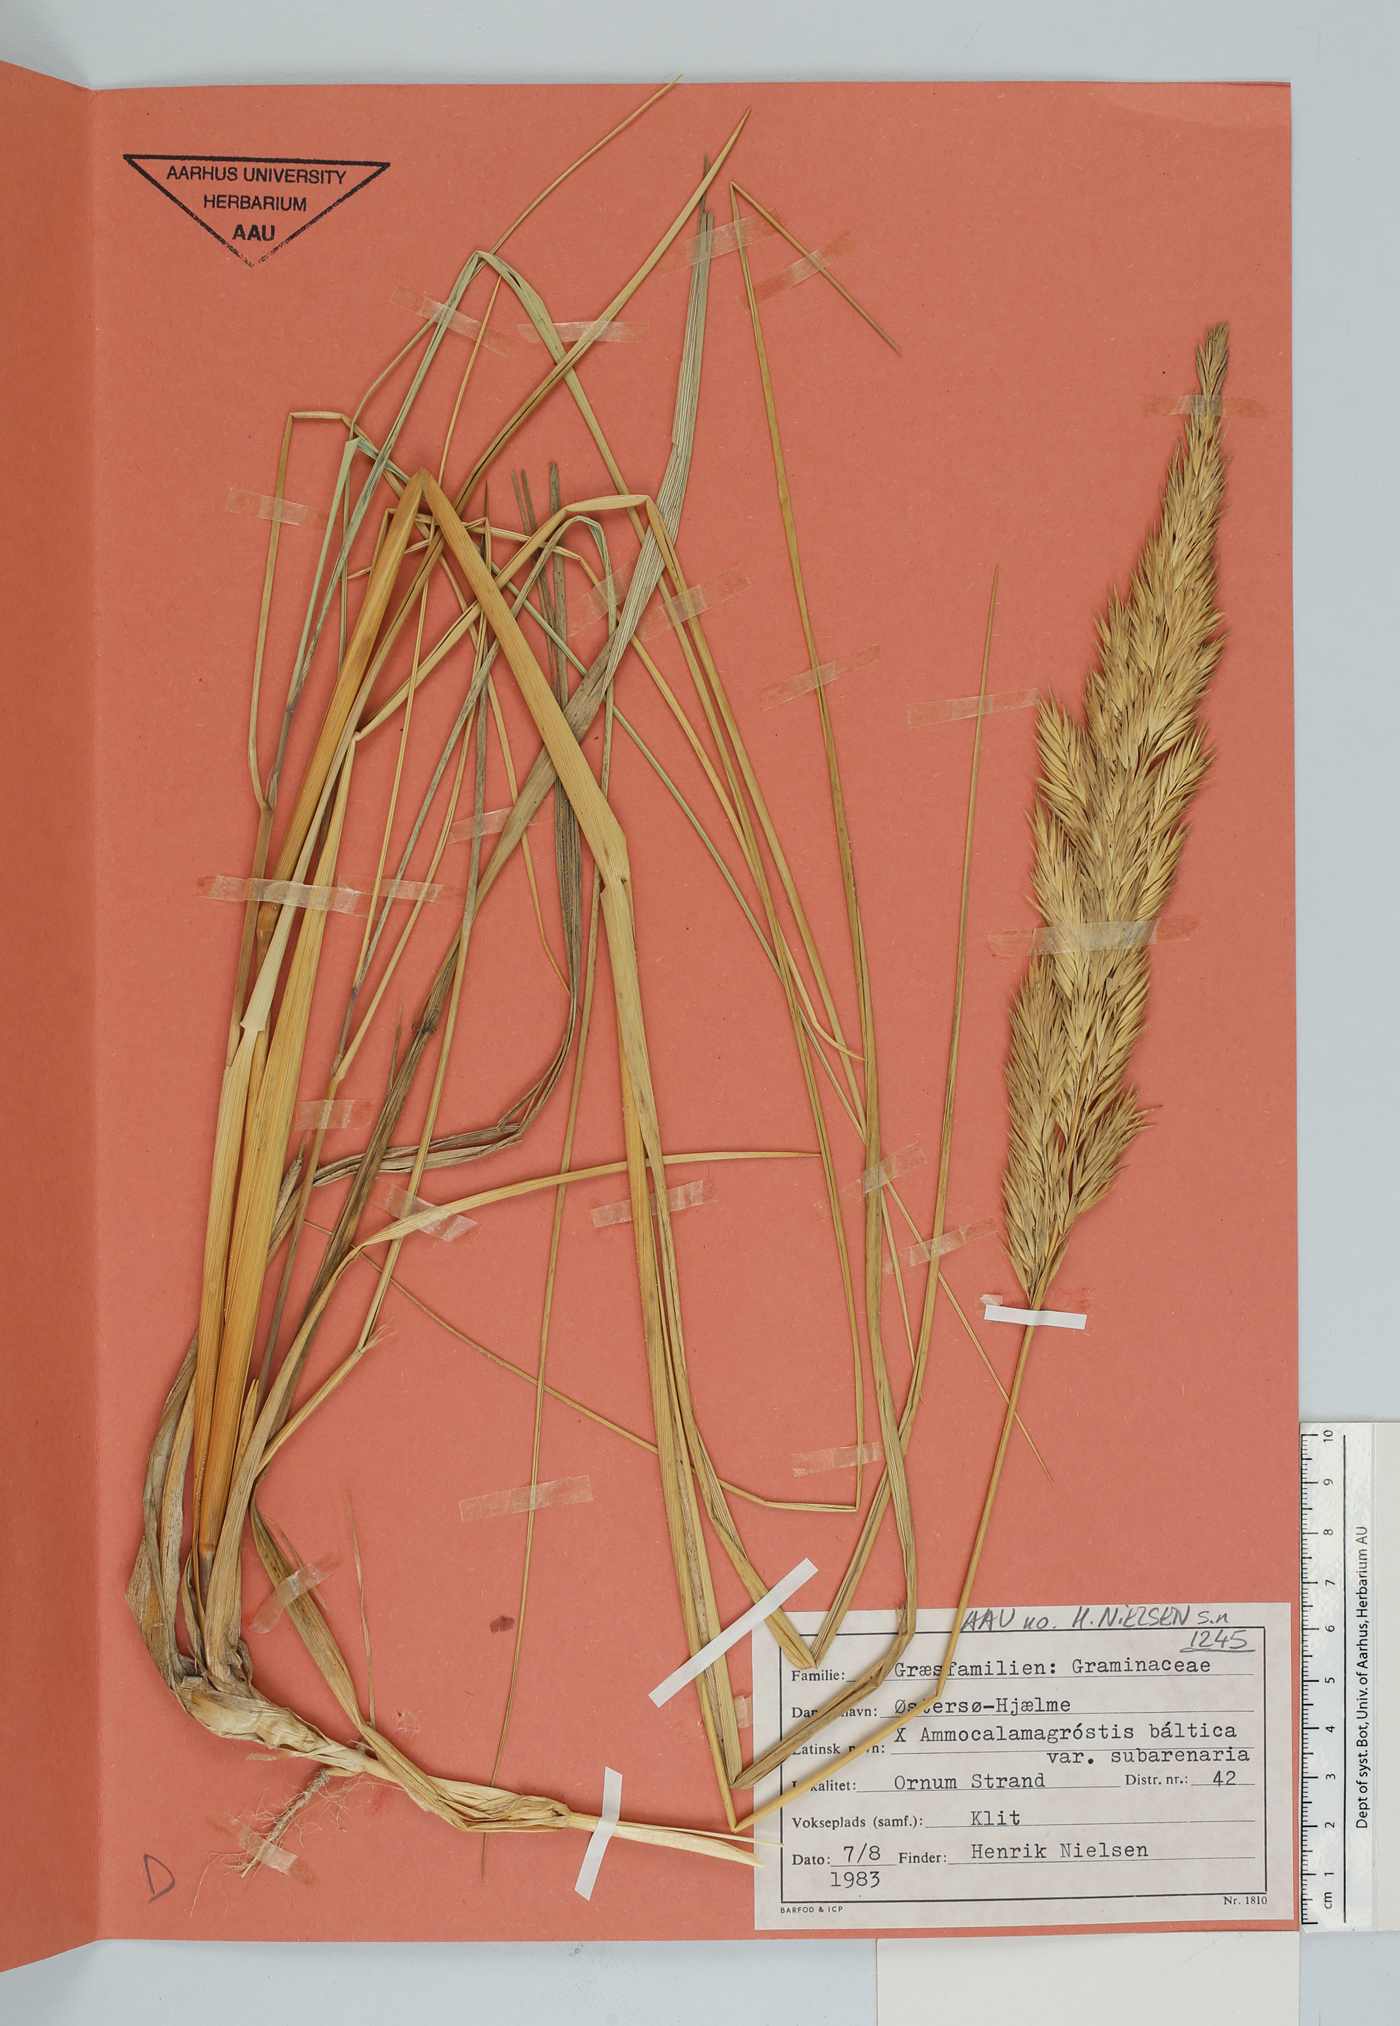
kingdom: Plantae
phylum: Tracheophyta
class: Liliopsida
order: Poales
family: Poaceae
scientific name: Poaceae
